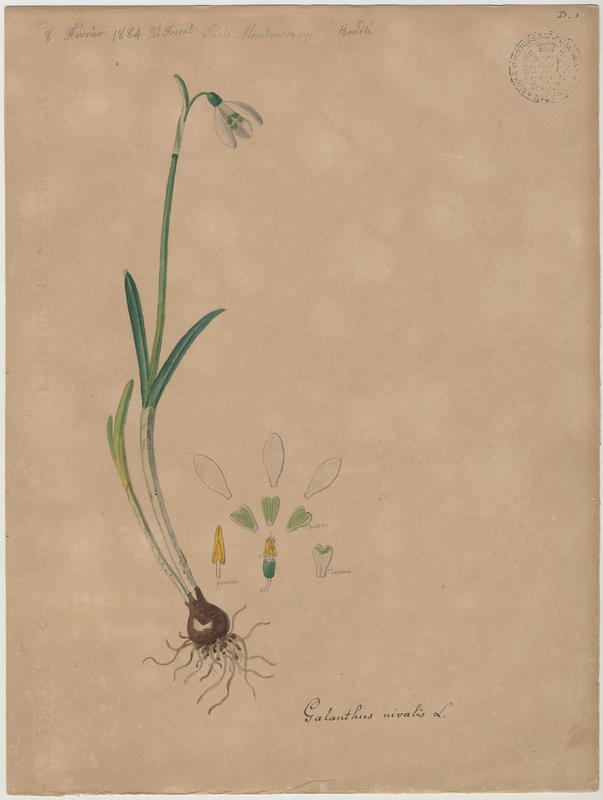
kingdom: Plantae
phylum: Tracheophyta
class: Liliopsida
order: Asparagales
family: Amaryllidaceae
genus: Galanthus
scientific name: Galanthus nivalis
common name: Snowdrop
